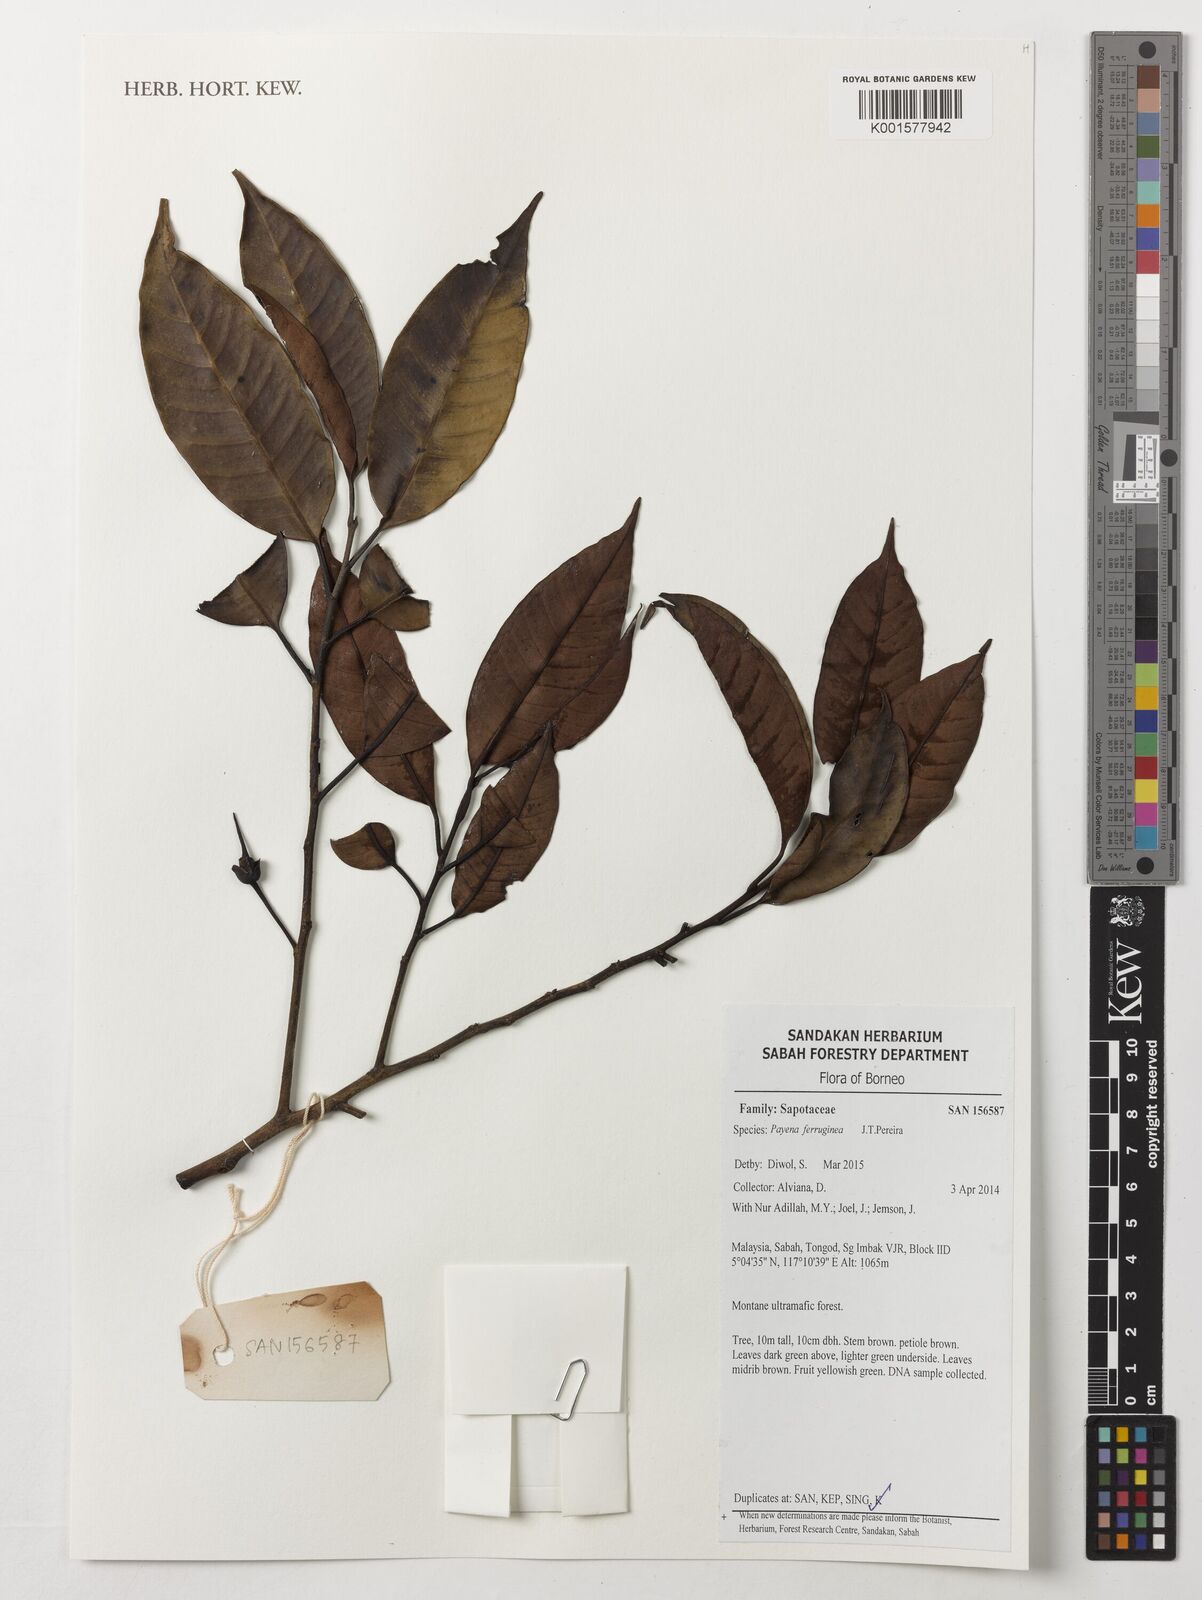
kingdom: Plantae
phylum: Tracheophyta
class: Magnoliopsida
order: Ericales
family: Sapotaceae
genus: Payena
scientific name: Payena ferruginea
